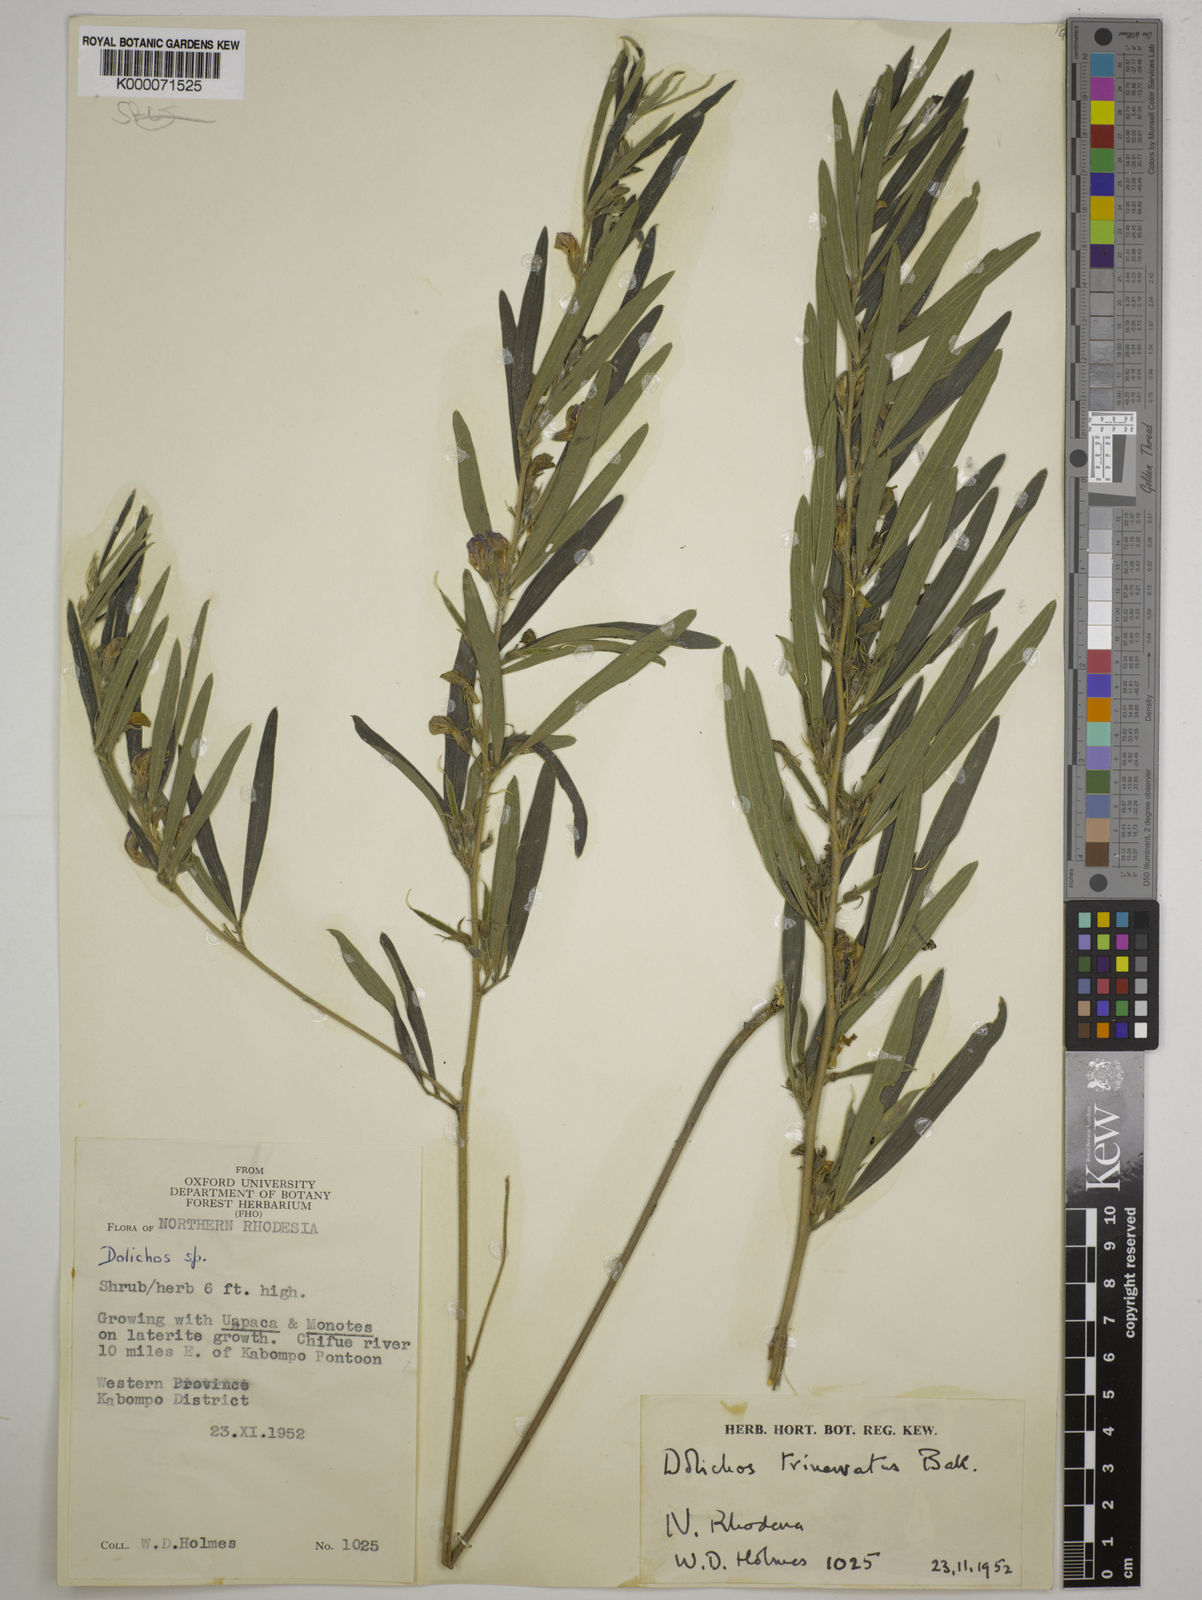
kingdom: Plantae
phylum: Tracheophyta
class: Magnoliopsida
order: Fabales
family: Fabaceae
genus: Dolichos
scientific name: Dolichos trinervatus
